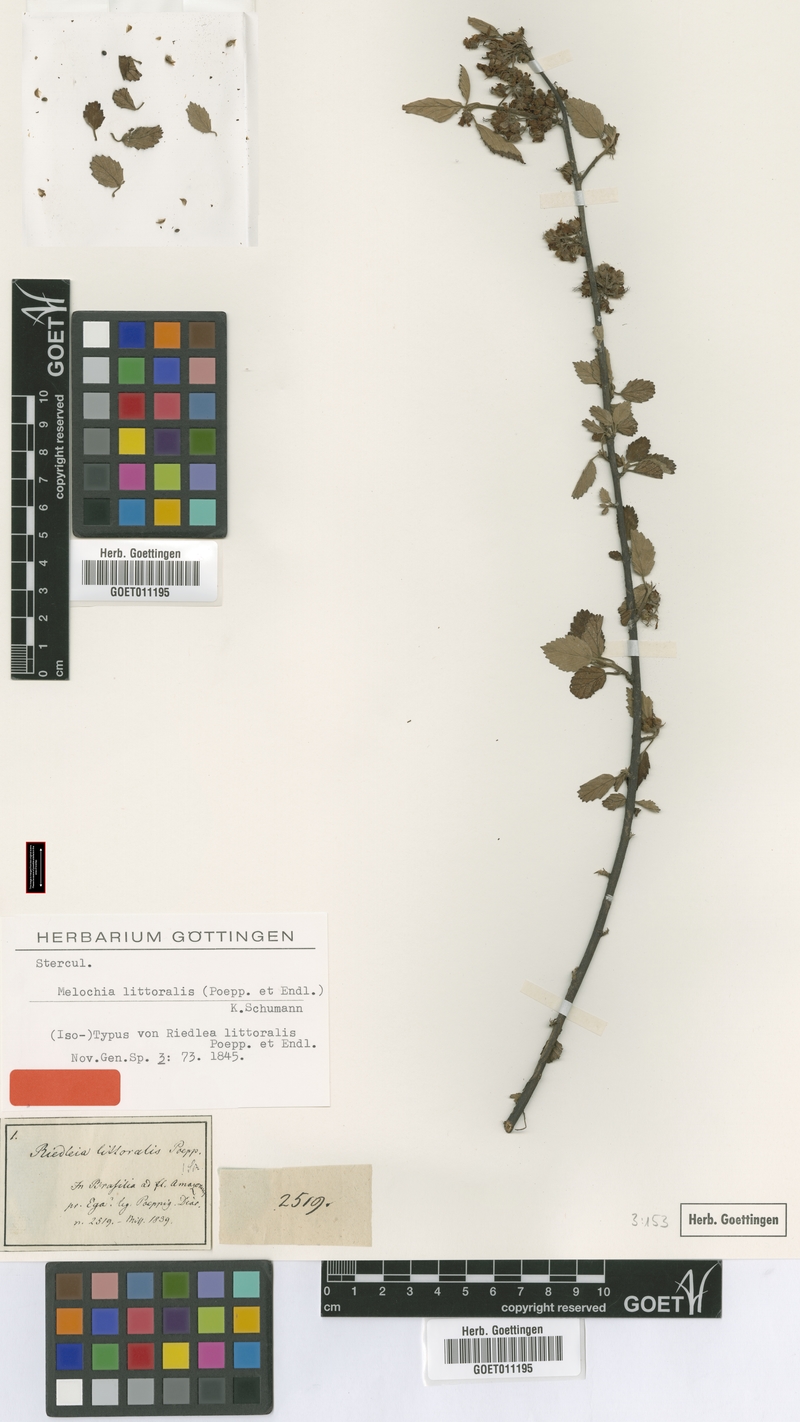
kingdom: Plantae
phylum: Tracheophyta
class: Magnoliopsida
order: Malvales
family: Malvaceae
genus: Melochia
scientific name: Melochia arenosa
